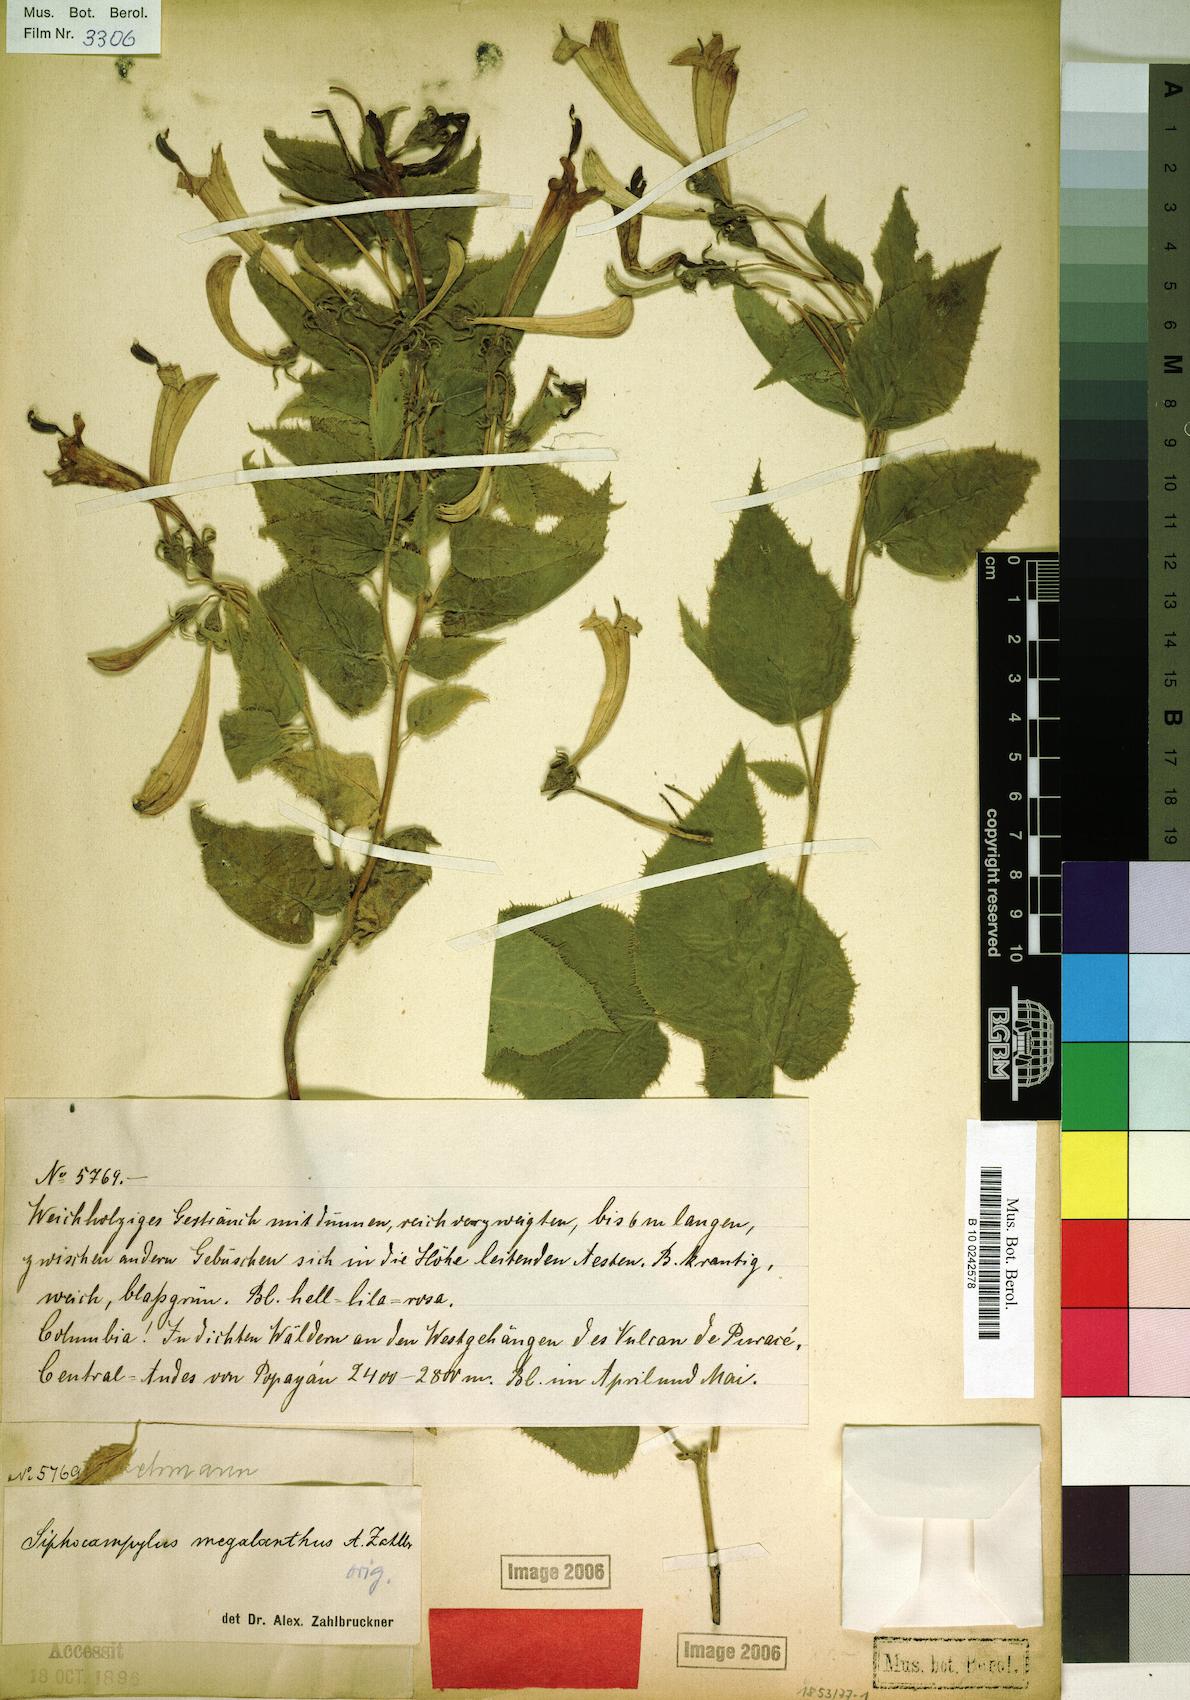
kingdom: Plantae
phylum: Tracheophyta
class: Magnoliopsida
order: Asterales
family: Campanulaceae
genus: Siphocampylus
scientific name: Siphocampylus megalanthus
